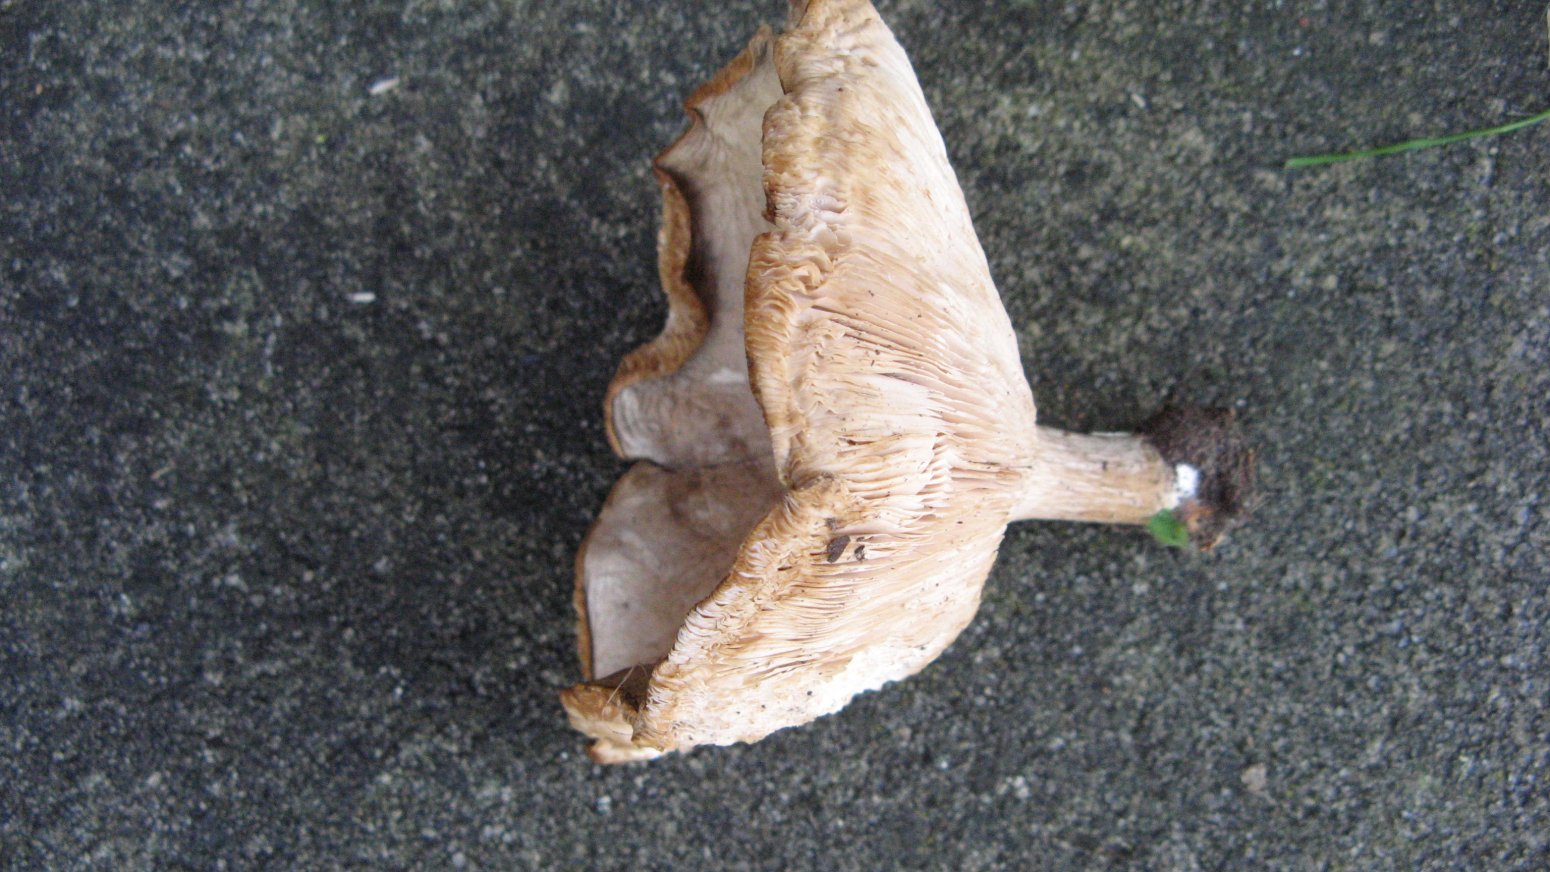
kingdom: Fungi
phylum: Basidiomycota
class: Agaricomycetes
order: Agaricales
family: Tricholomataceae
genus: Melanoleuca
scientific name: Melanoleuca
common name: munkehat
